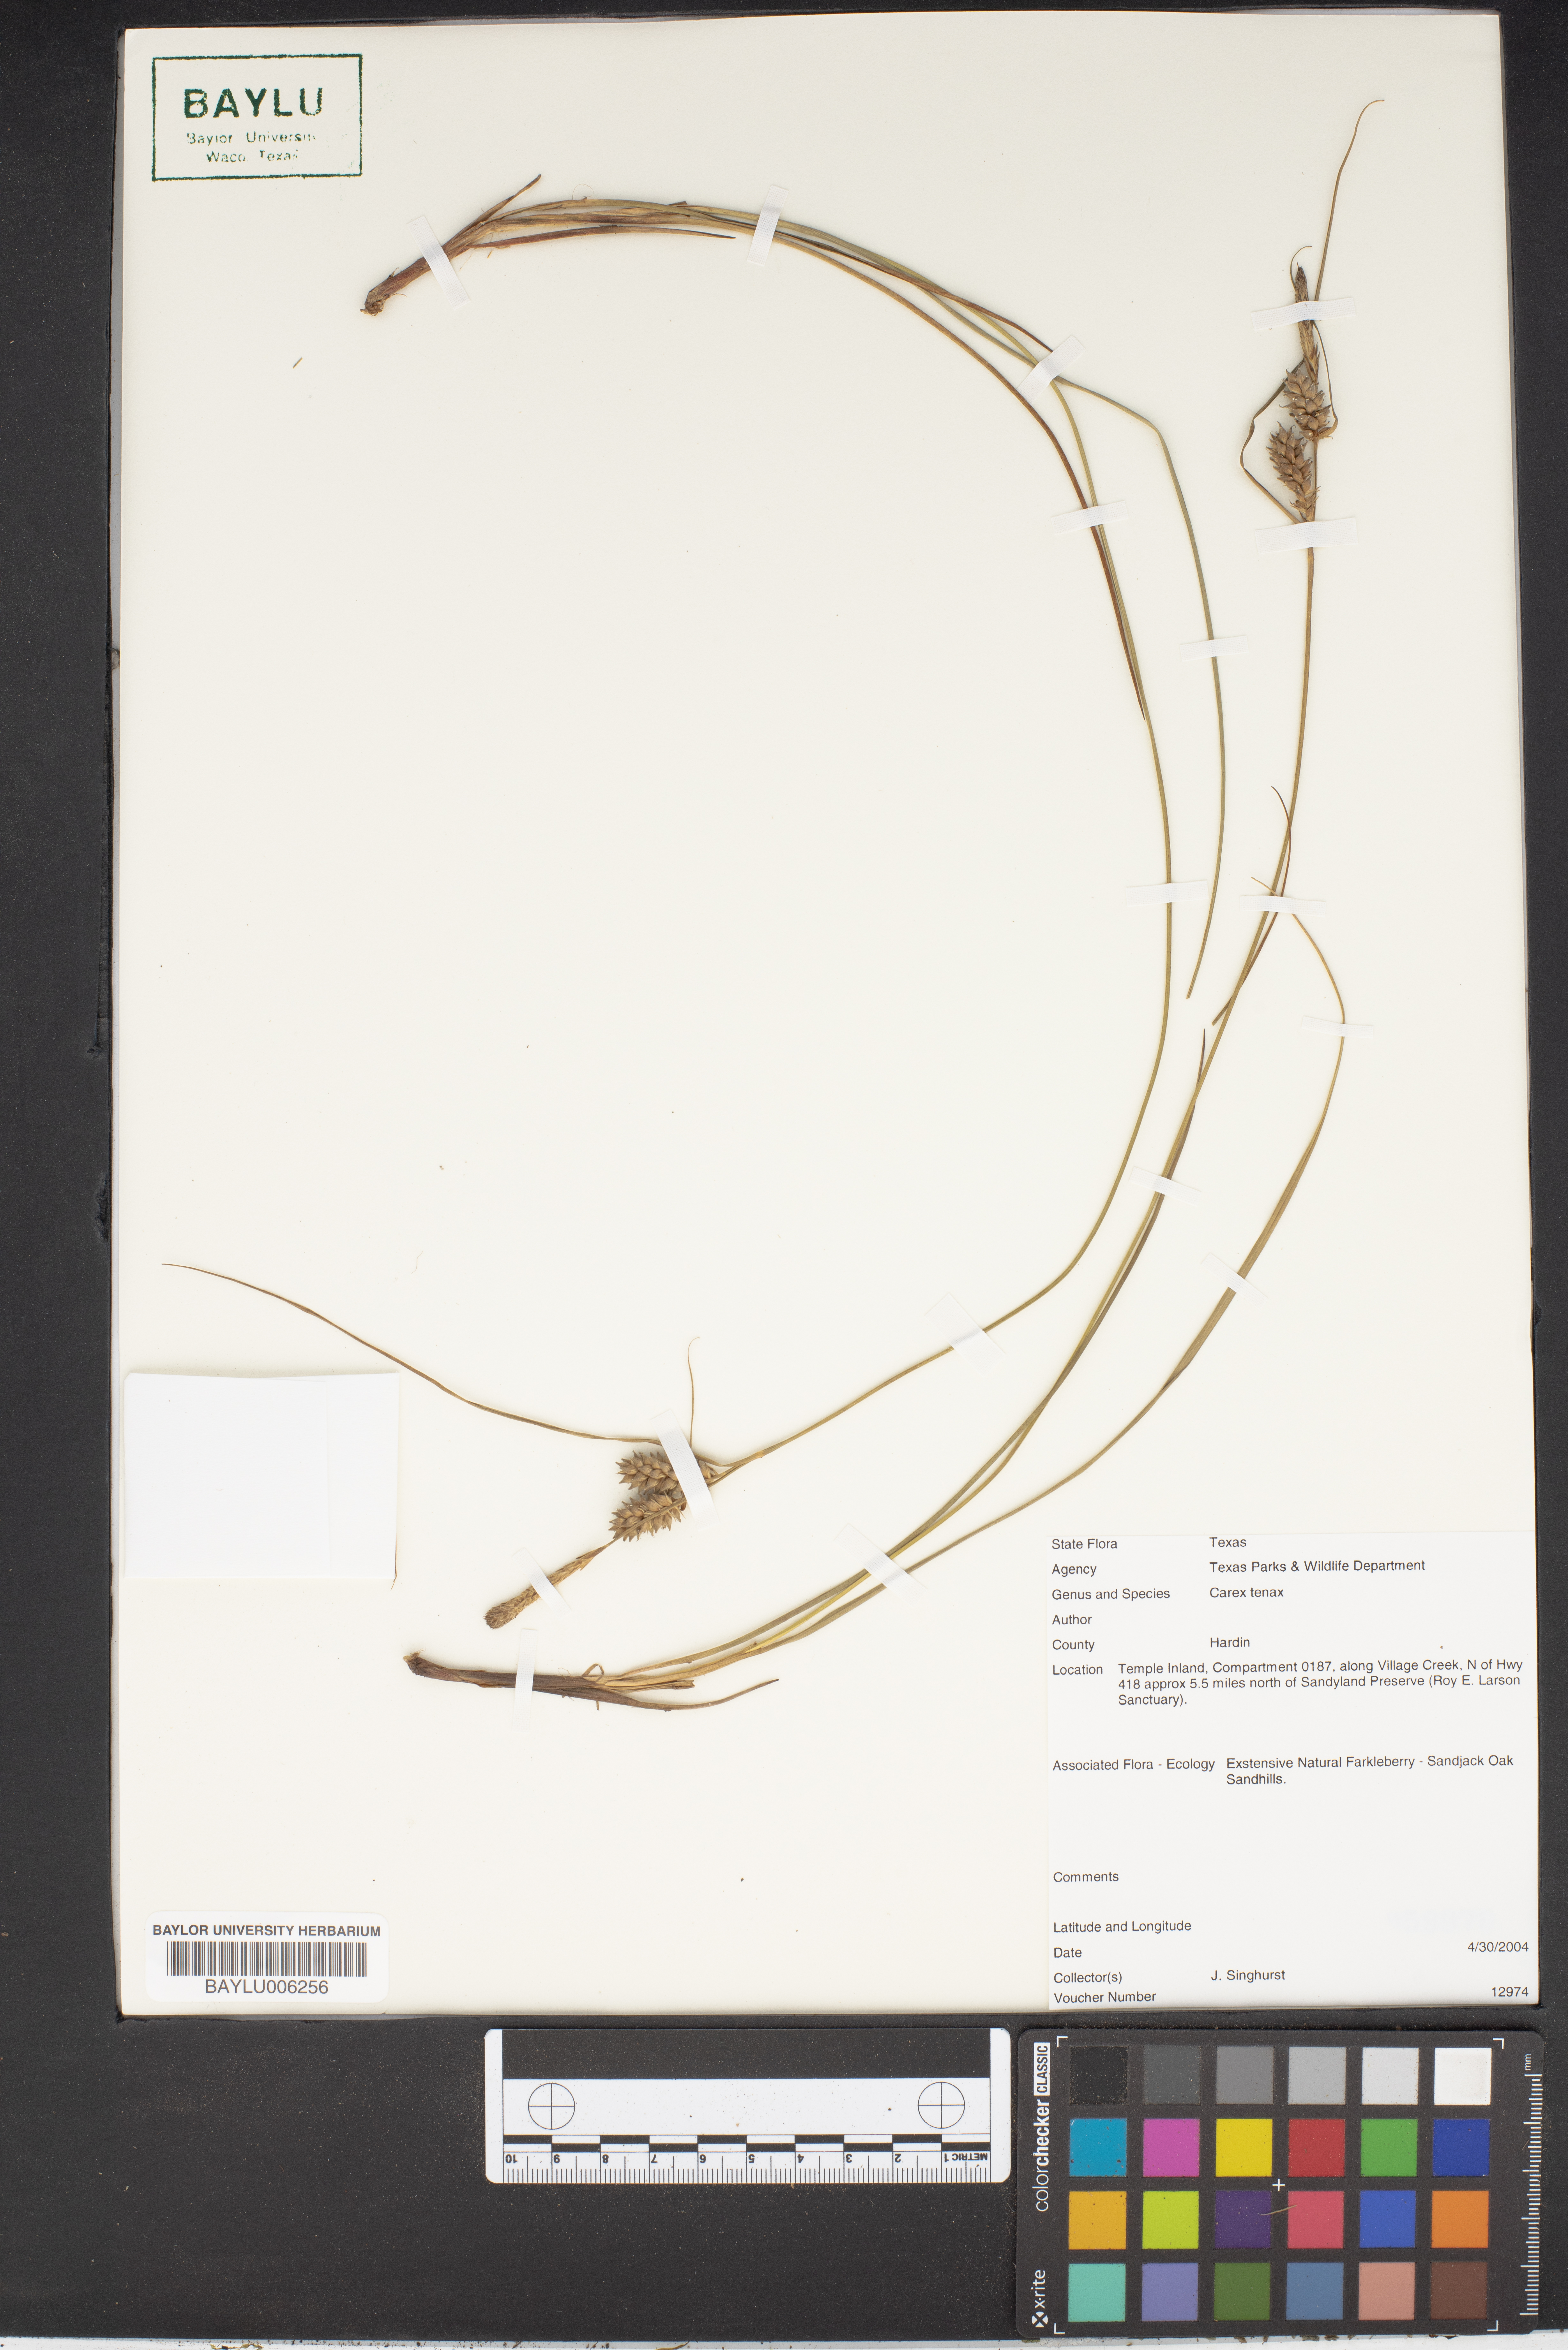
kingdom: Plantae
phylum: Tracheophyta
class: Liliopsida
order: Poales
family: Cyperaceae
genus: Carex
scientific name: Carex tenax
